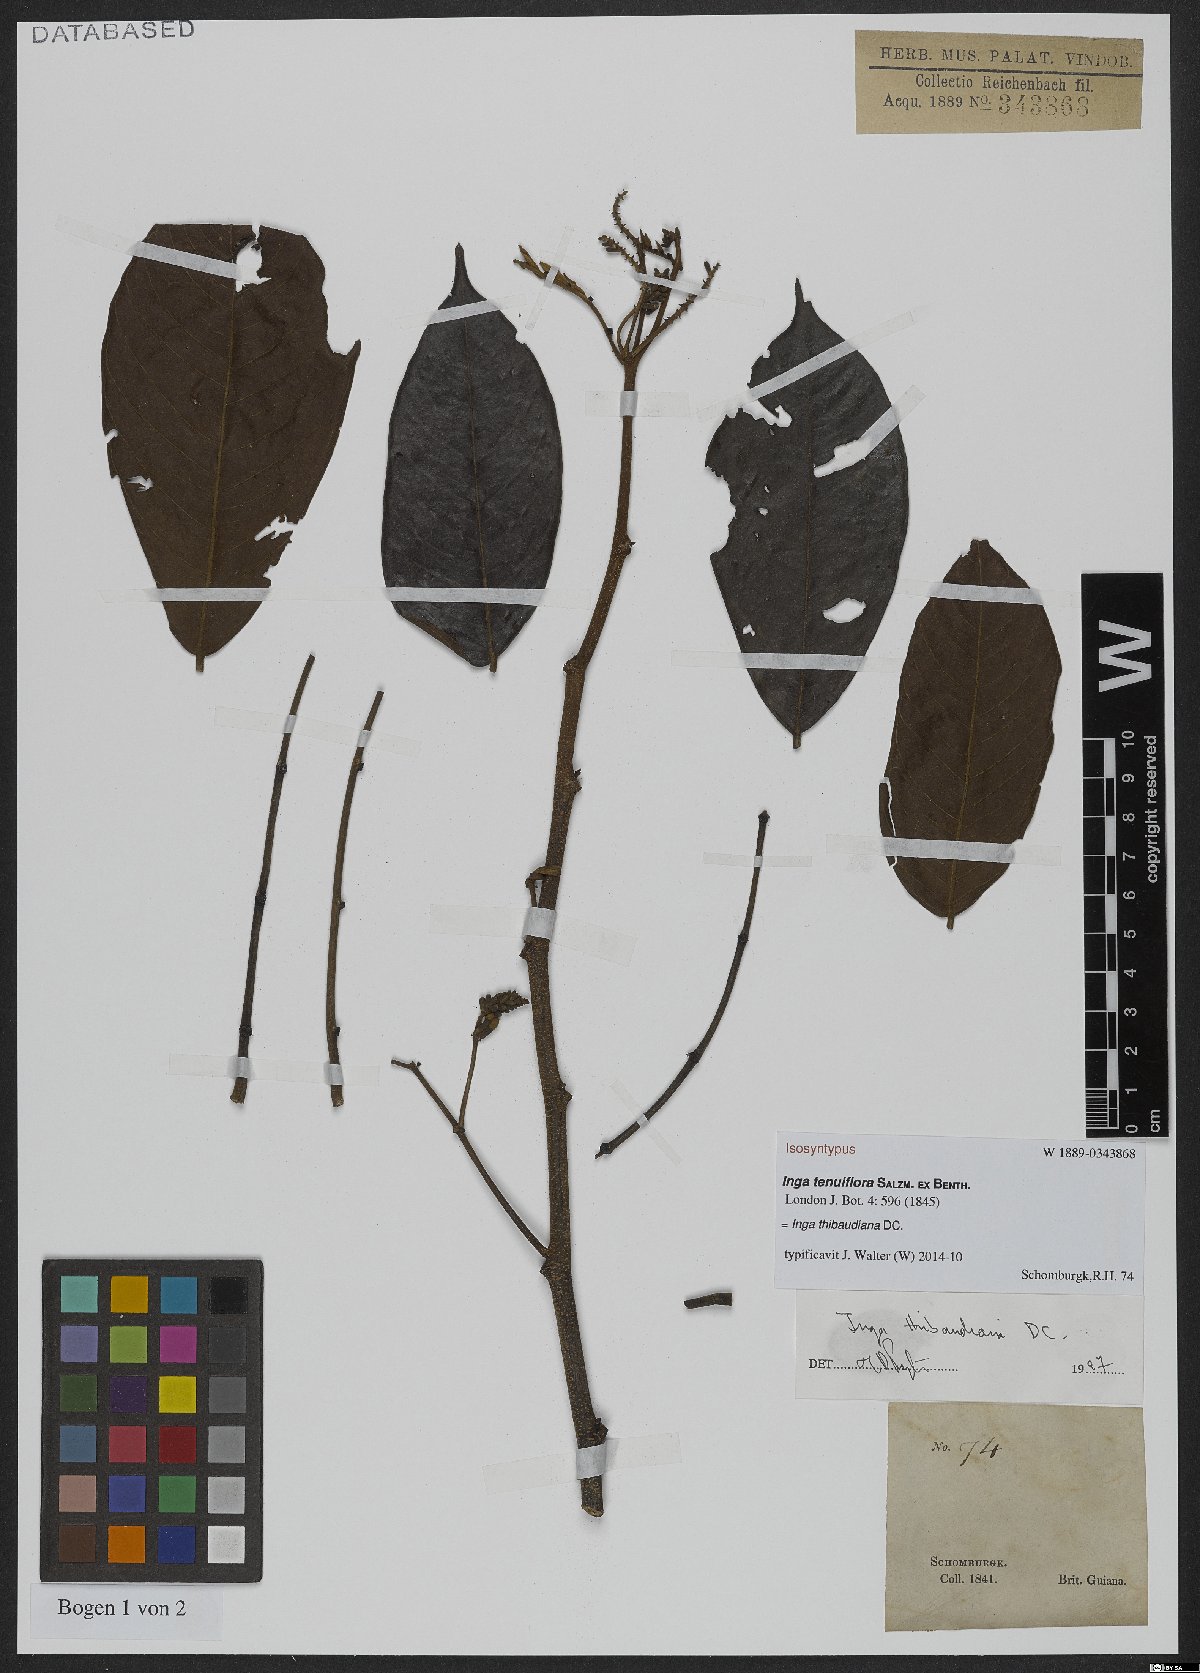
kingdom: Plantae
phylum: Tracheophyta
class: Magnoliopsida
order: Fabales
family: Fabaceae
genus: Inga
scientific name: Inga thibaudiana
